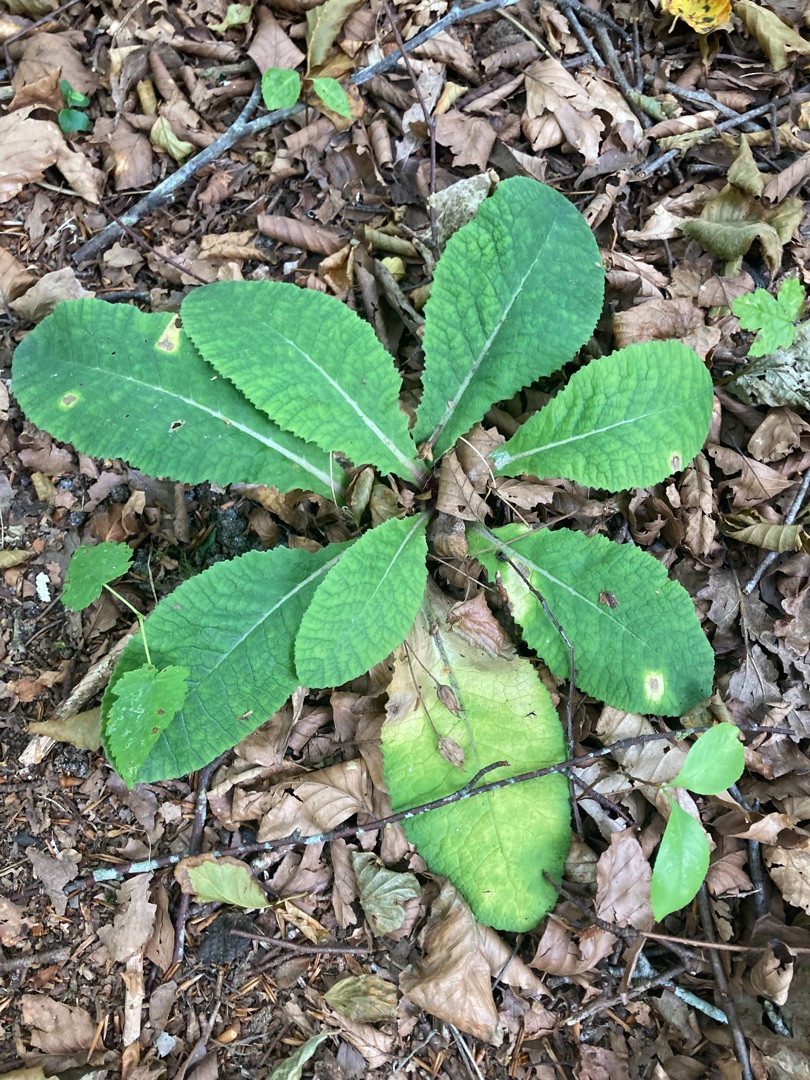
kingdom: Plantae
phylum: Tracheophyta
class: Magnoliopsida
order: Ericales
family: Primulaceae
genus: Primula
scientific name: Primula vulgaris
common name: Storblomstret kodriver
